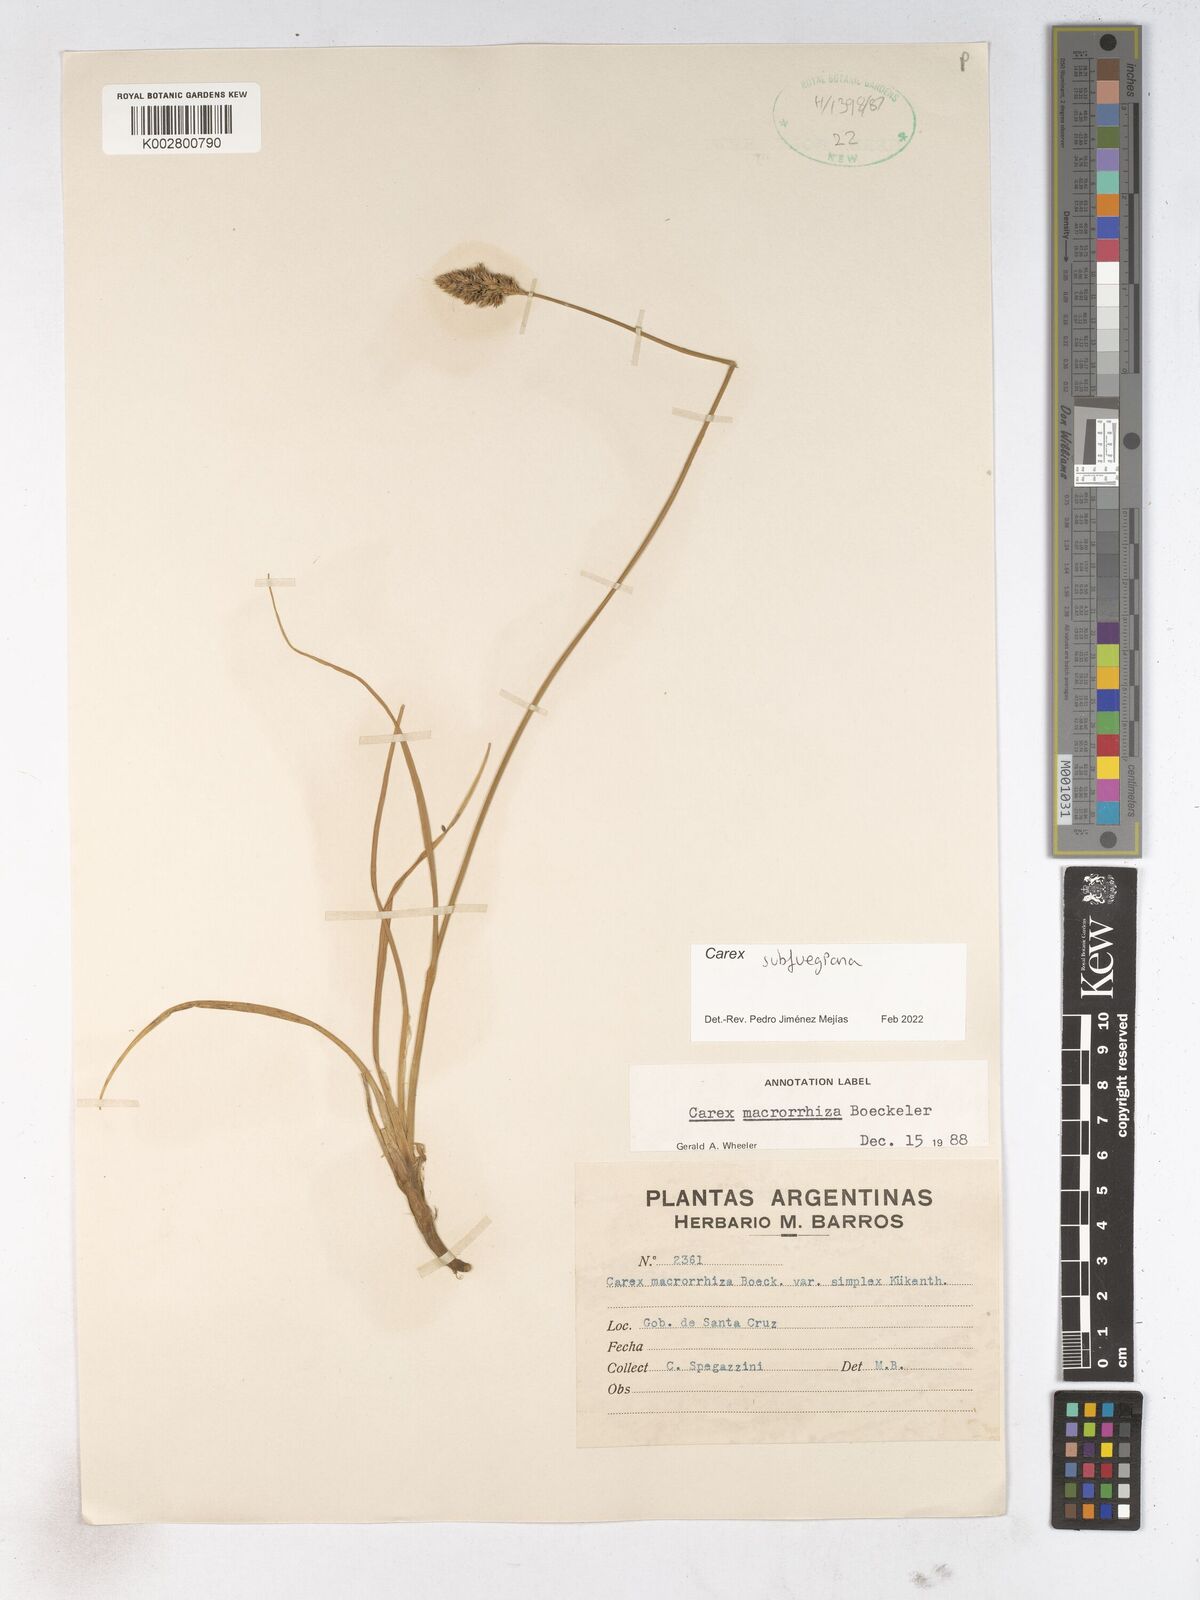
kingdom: Plantae
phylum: Tracheophyta
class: Liliopsida
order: Poales
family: Cyperaceae
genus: Carex
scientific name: Carex
